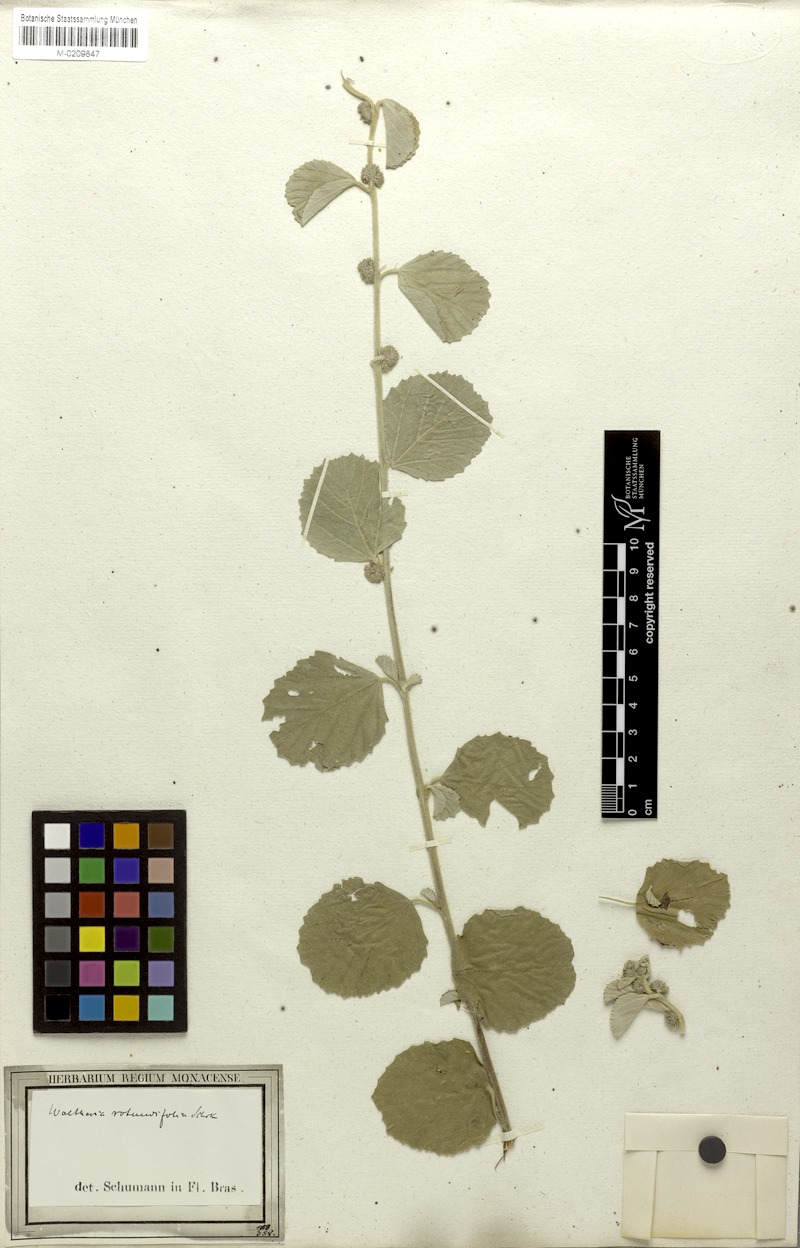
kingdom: Plantae
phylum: Tracheophyta
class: Magnoliopsida
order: Malvales
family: Malvaceae
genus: Waltheria
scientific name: Waltheria rotundifolia
